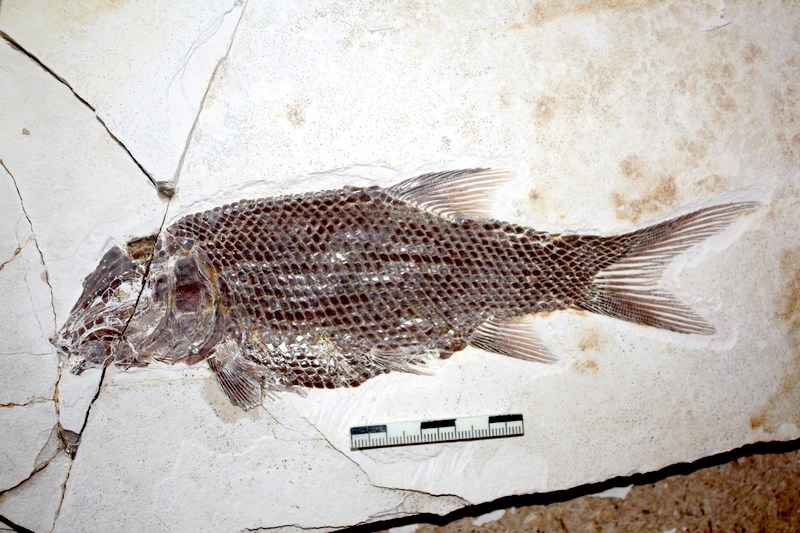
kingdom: Animalia
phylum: Chordata
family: Callipurbeckiidae
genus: Macrosemimimus
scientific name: Macrosemimimus fegerti
